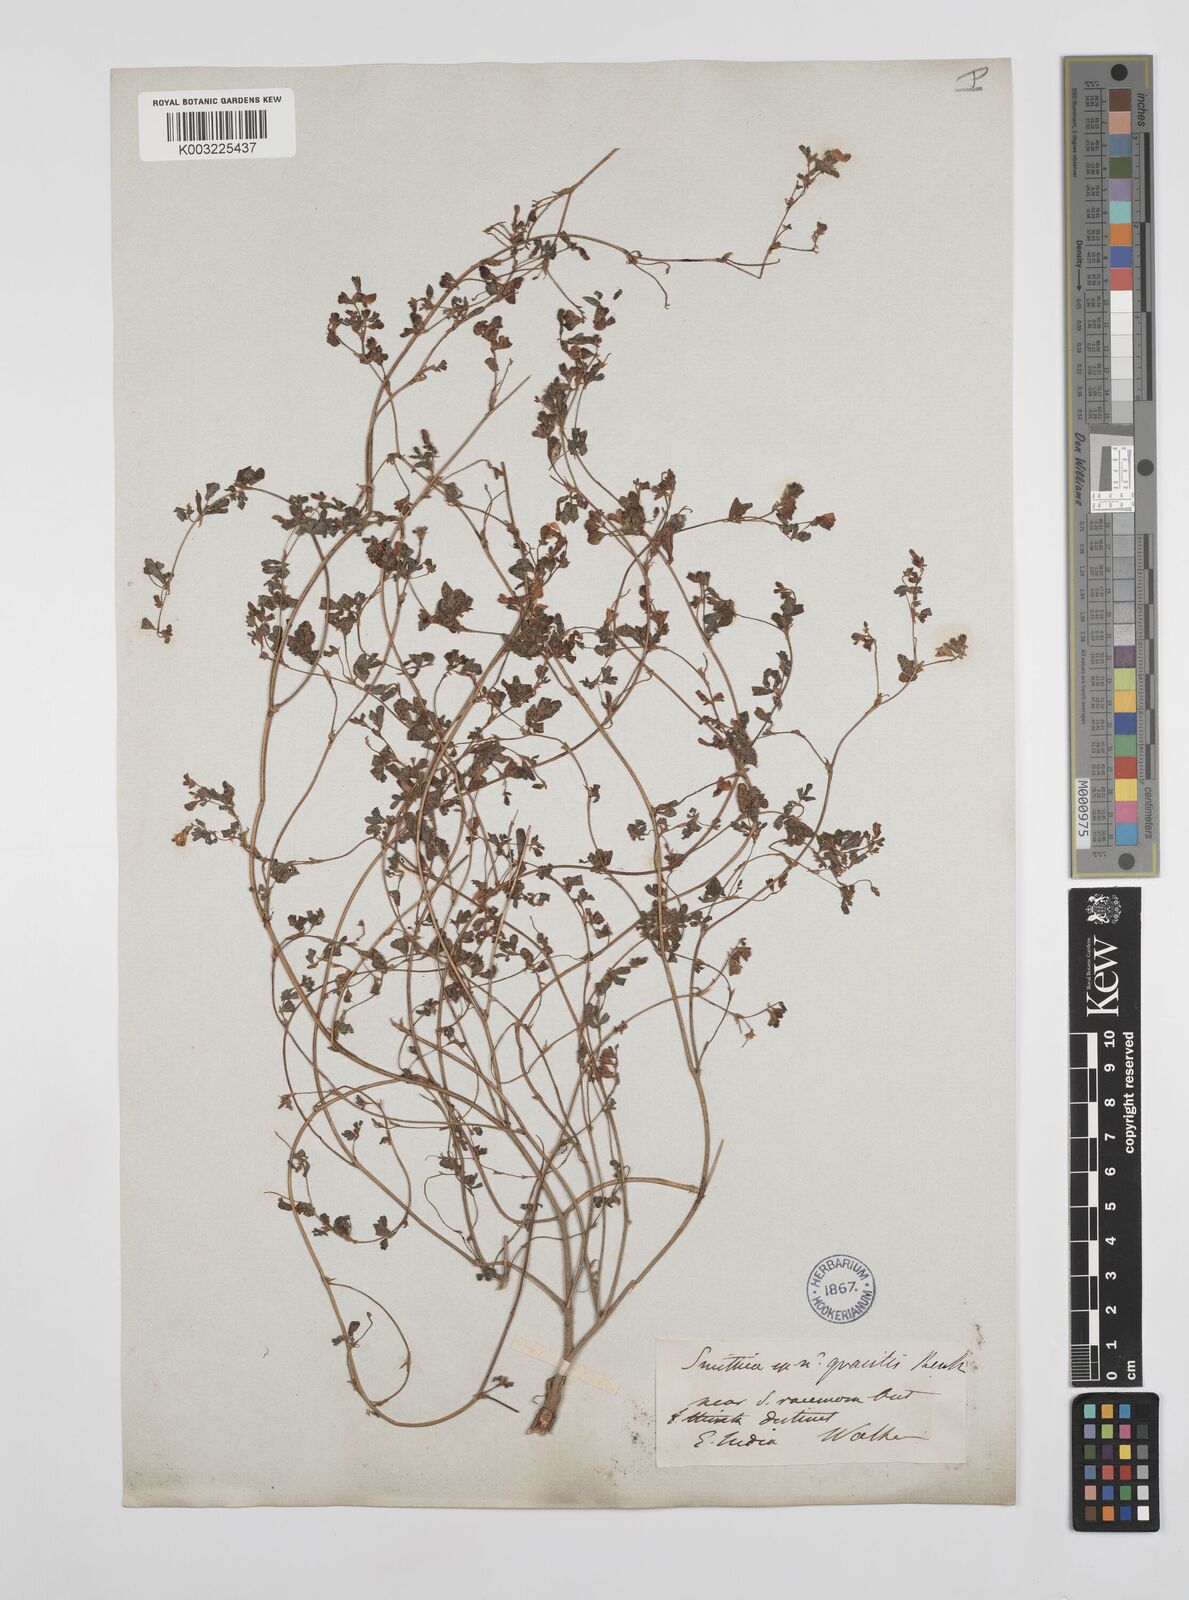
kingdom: Plantae
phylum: Tracheophyta
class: Magnoliopsida
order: Fabales
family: Fabaceae
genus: Smithia
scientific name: Smithia gracilis
